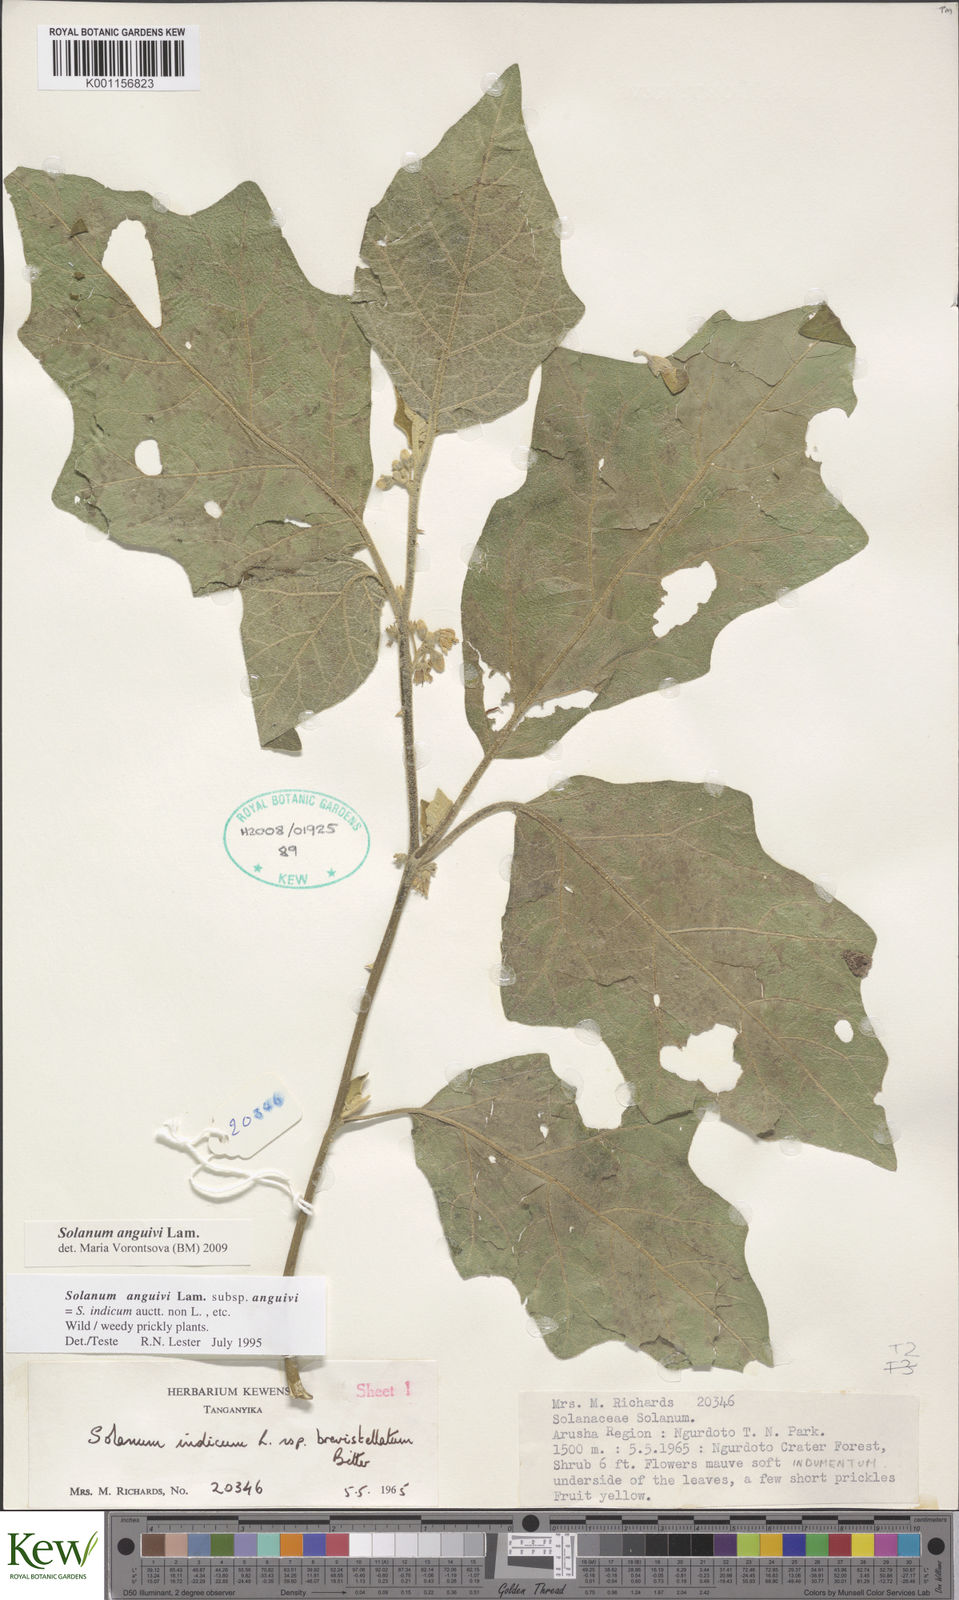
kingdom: Plantae
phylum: Tracheophyta
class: Magnoliopsida
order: Solanales
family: Solanaceae
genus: Solanum
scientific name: Solanum anguivi
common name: Forest bitterberry
